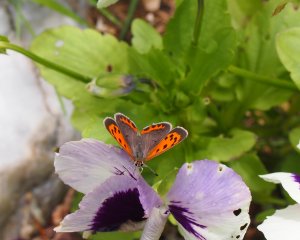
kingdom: Animalia
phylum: Arthropoda
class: Insecta
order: Lepidoptera
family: Lycaenidae
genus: Lycaena
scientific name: Lycaena phlaeas
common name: American Copper
